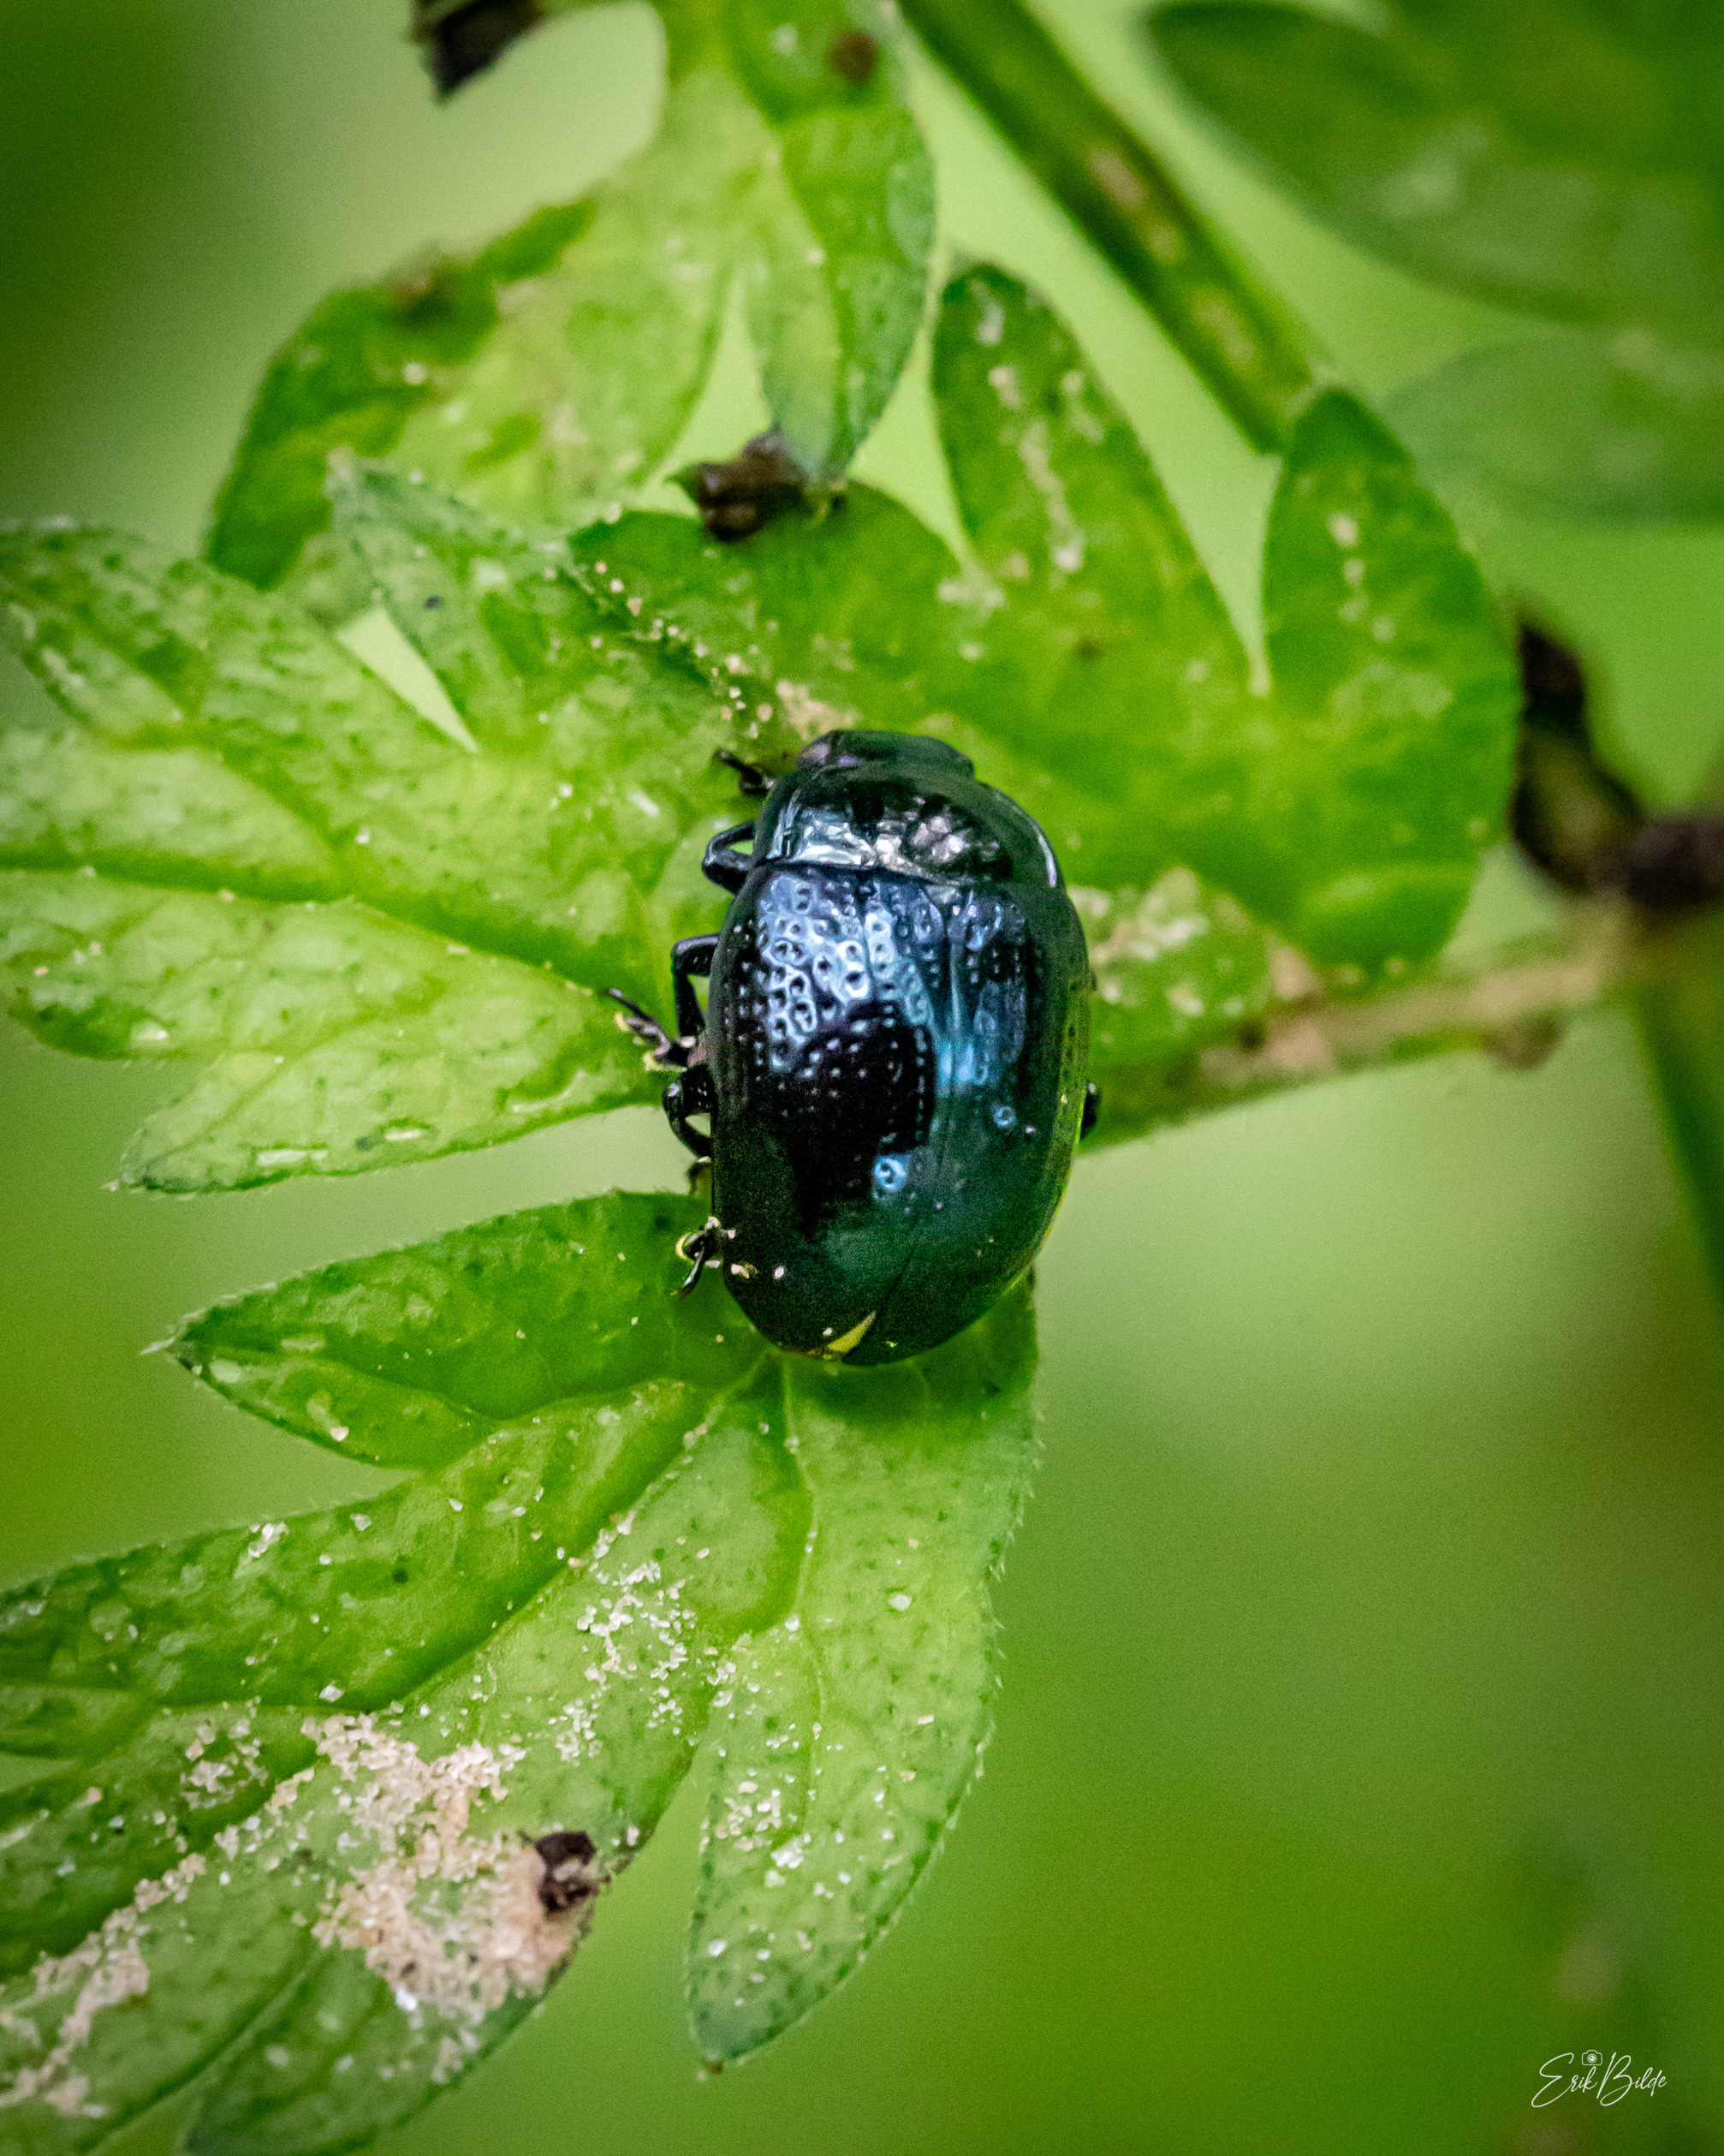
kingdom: Animalia
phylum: Arthropoda
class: Insecta
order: Coleoptera
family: Chrysomelidae
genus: Chrysolina
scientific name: Chrysolina oricalcia
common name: Rækkepunkteret guldbille
